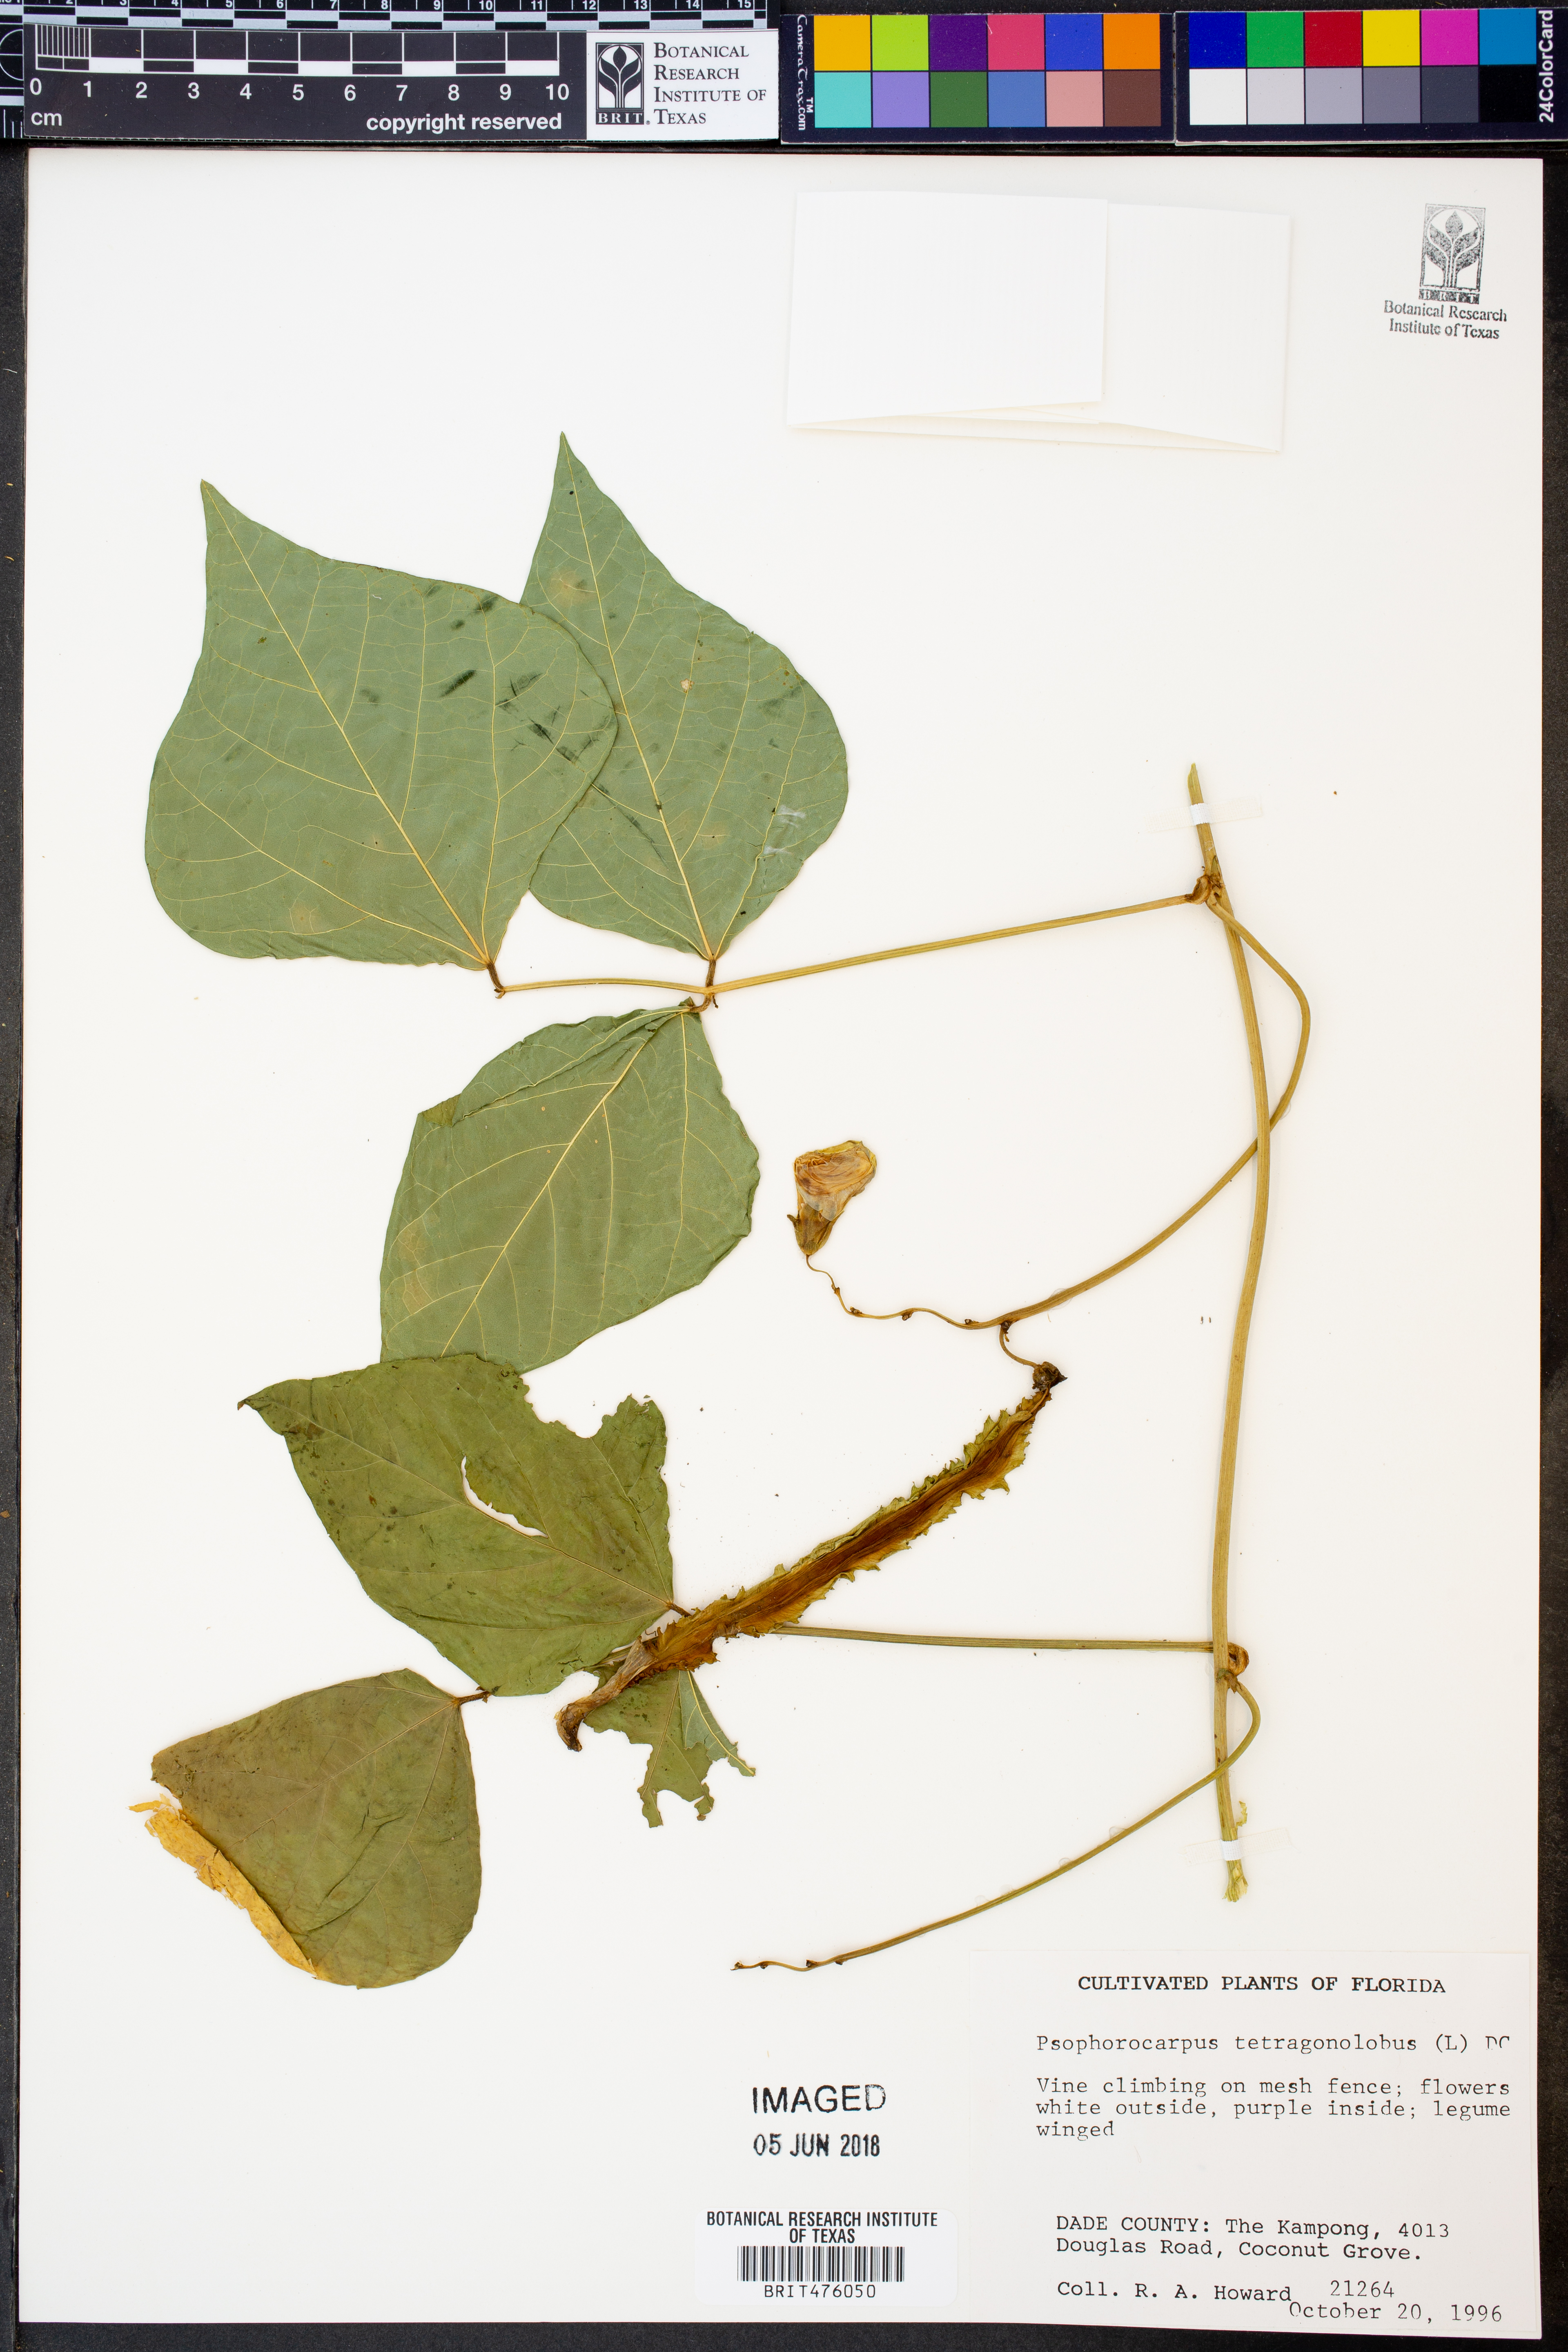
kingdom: Plantae
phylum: Tracheophyta
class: Magnoliopsida
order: Fabales
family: Fabaceae
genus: Psophocarpus
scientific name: Psophocarpus tetragonolobus
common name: Goa-bean
